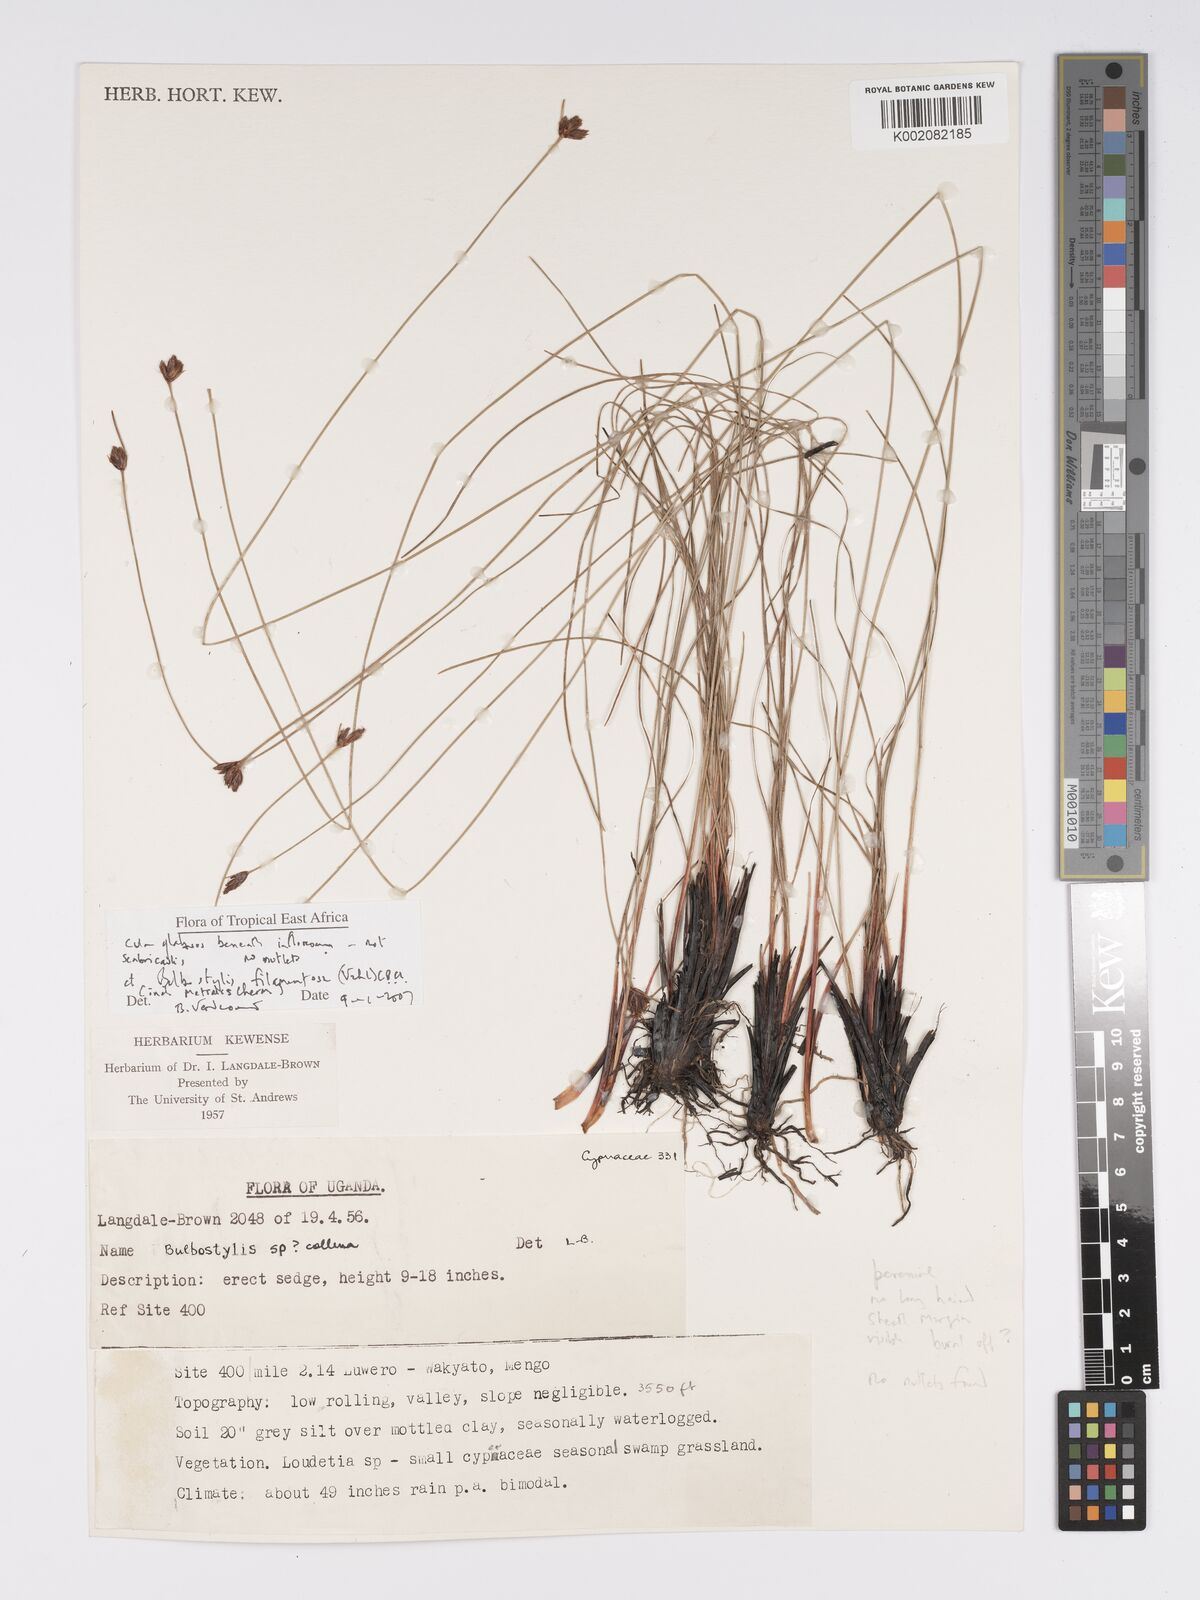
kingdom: Plantae
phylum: Tracheophyta
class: Liliopsida
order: Poales
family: Cyperaceae
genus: Bulbostylis
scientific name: Bulbostylis filamentosa
